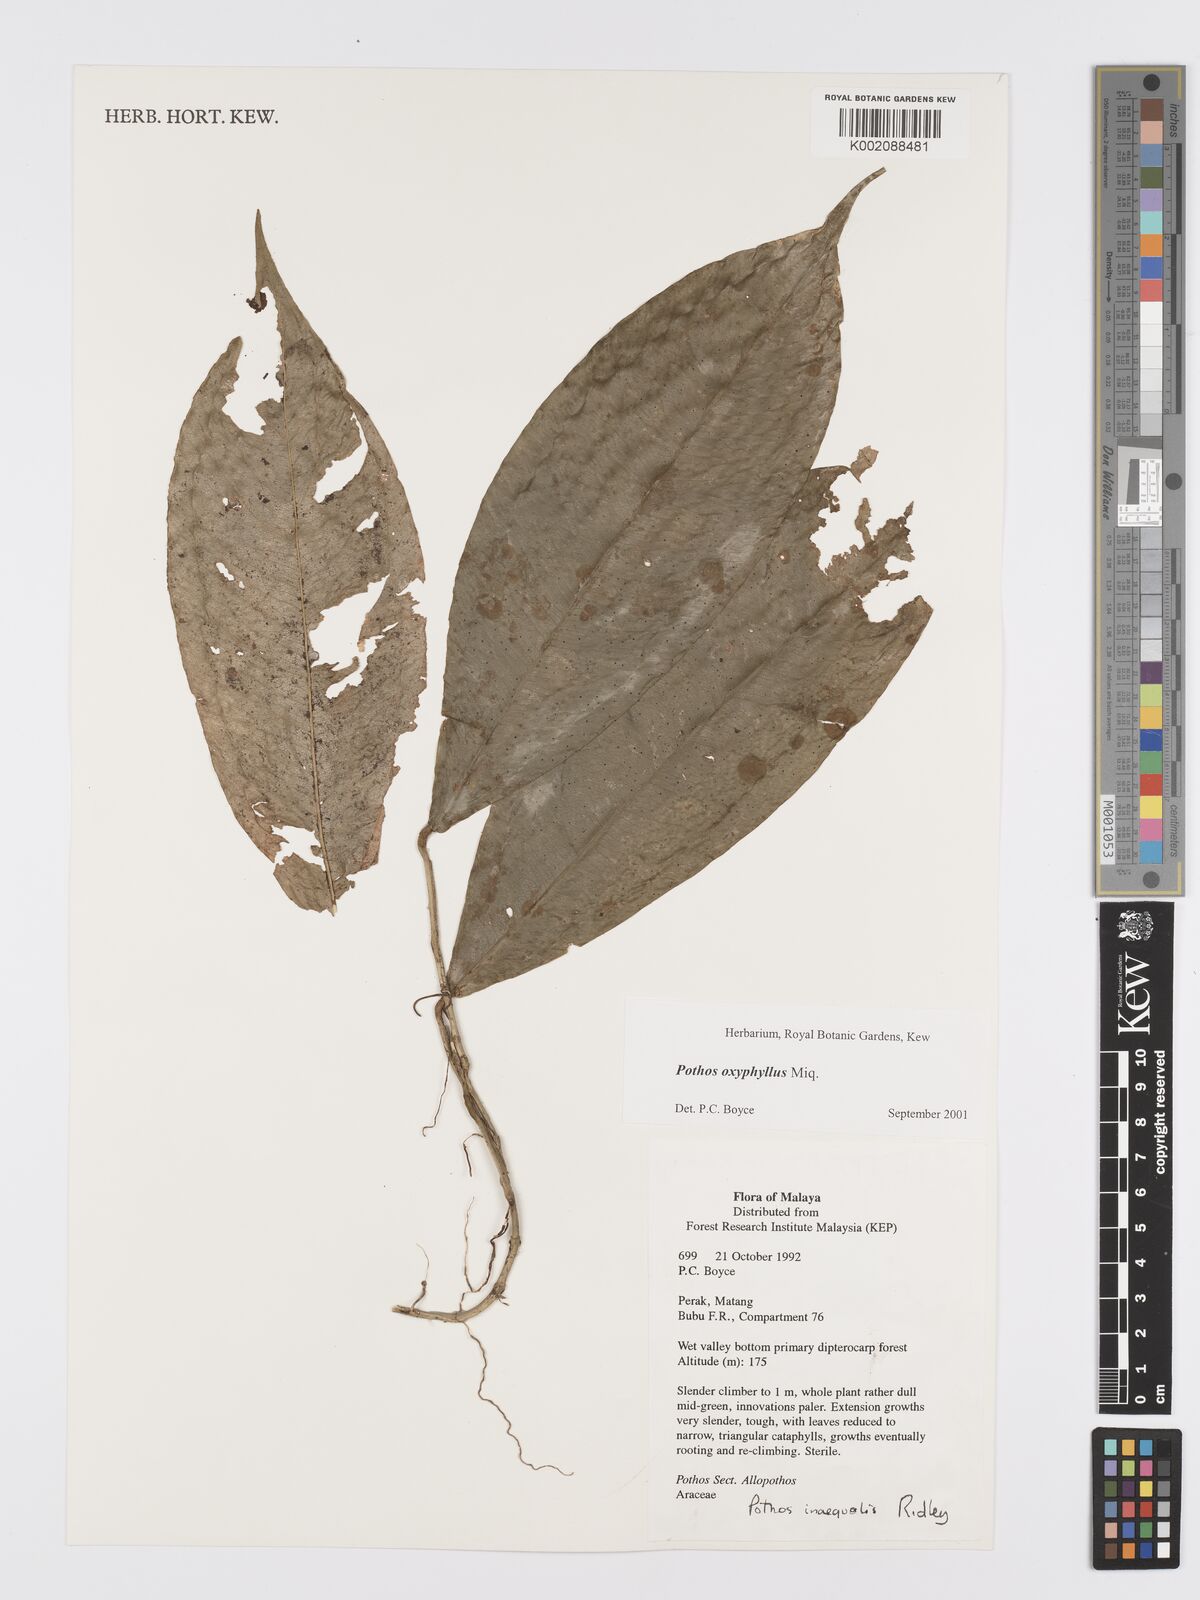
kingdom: Plantae
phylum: Tracheophyta
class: Liliopsida
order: Alismatales
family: Araceae
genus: Pothos
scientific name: Pothos oxyphyllus
